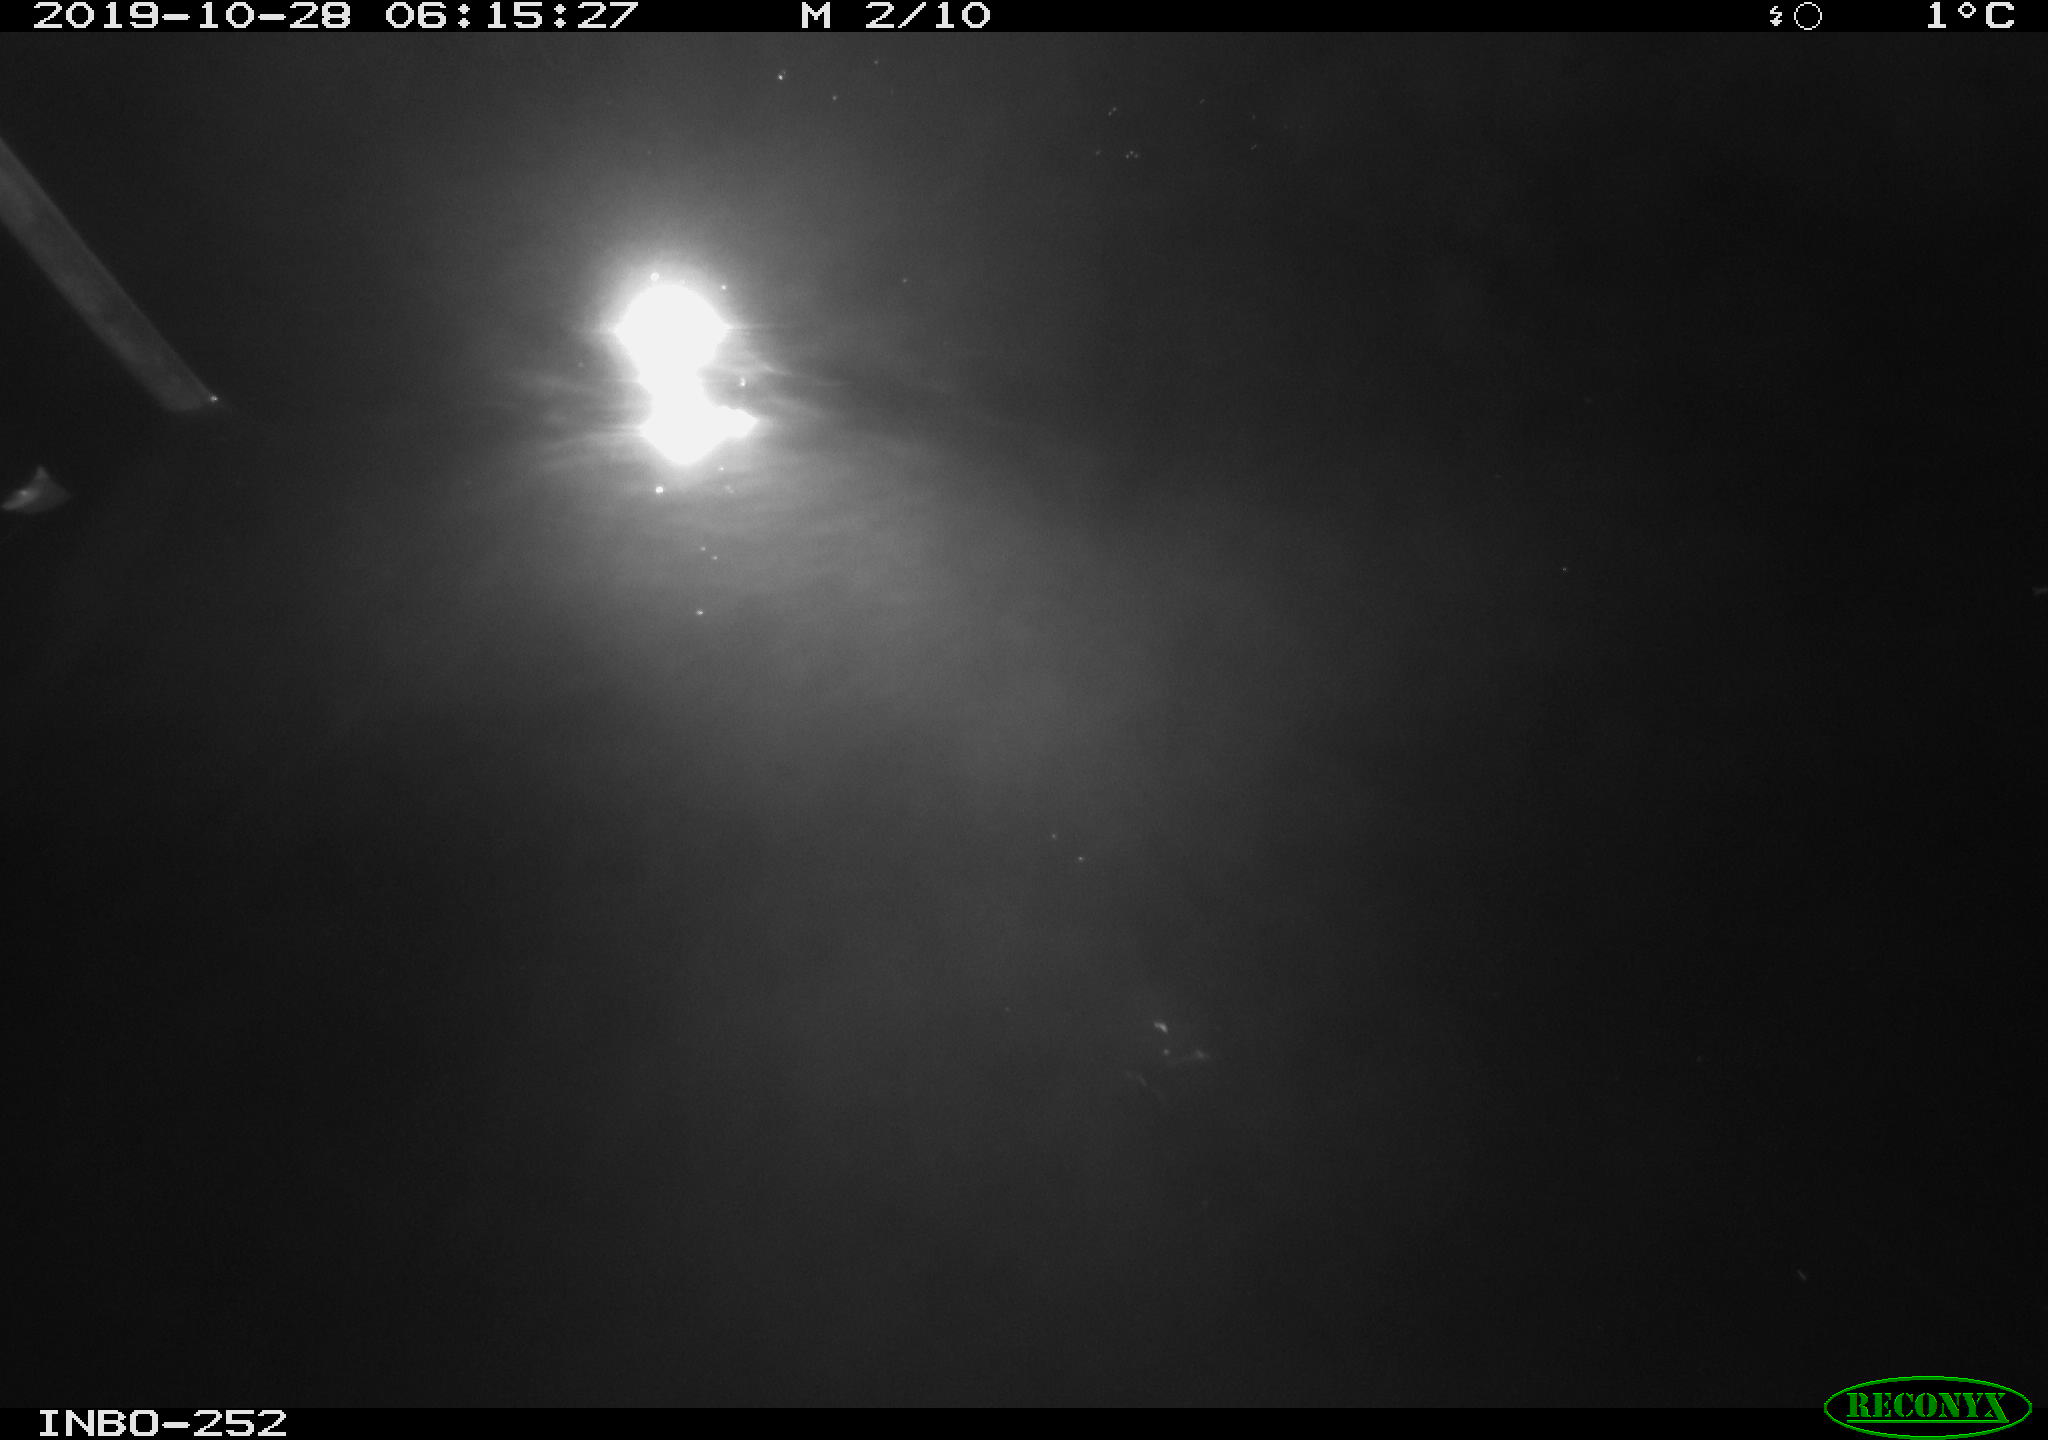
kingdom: Animalia
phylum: Chordata
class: Aves
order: Anseriformes
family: Anatidae
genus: Anas
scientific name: Anas platyrhynchos
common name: Mallard
